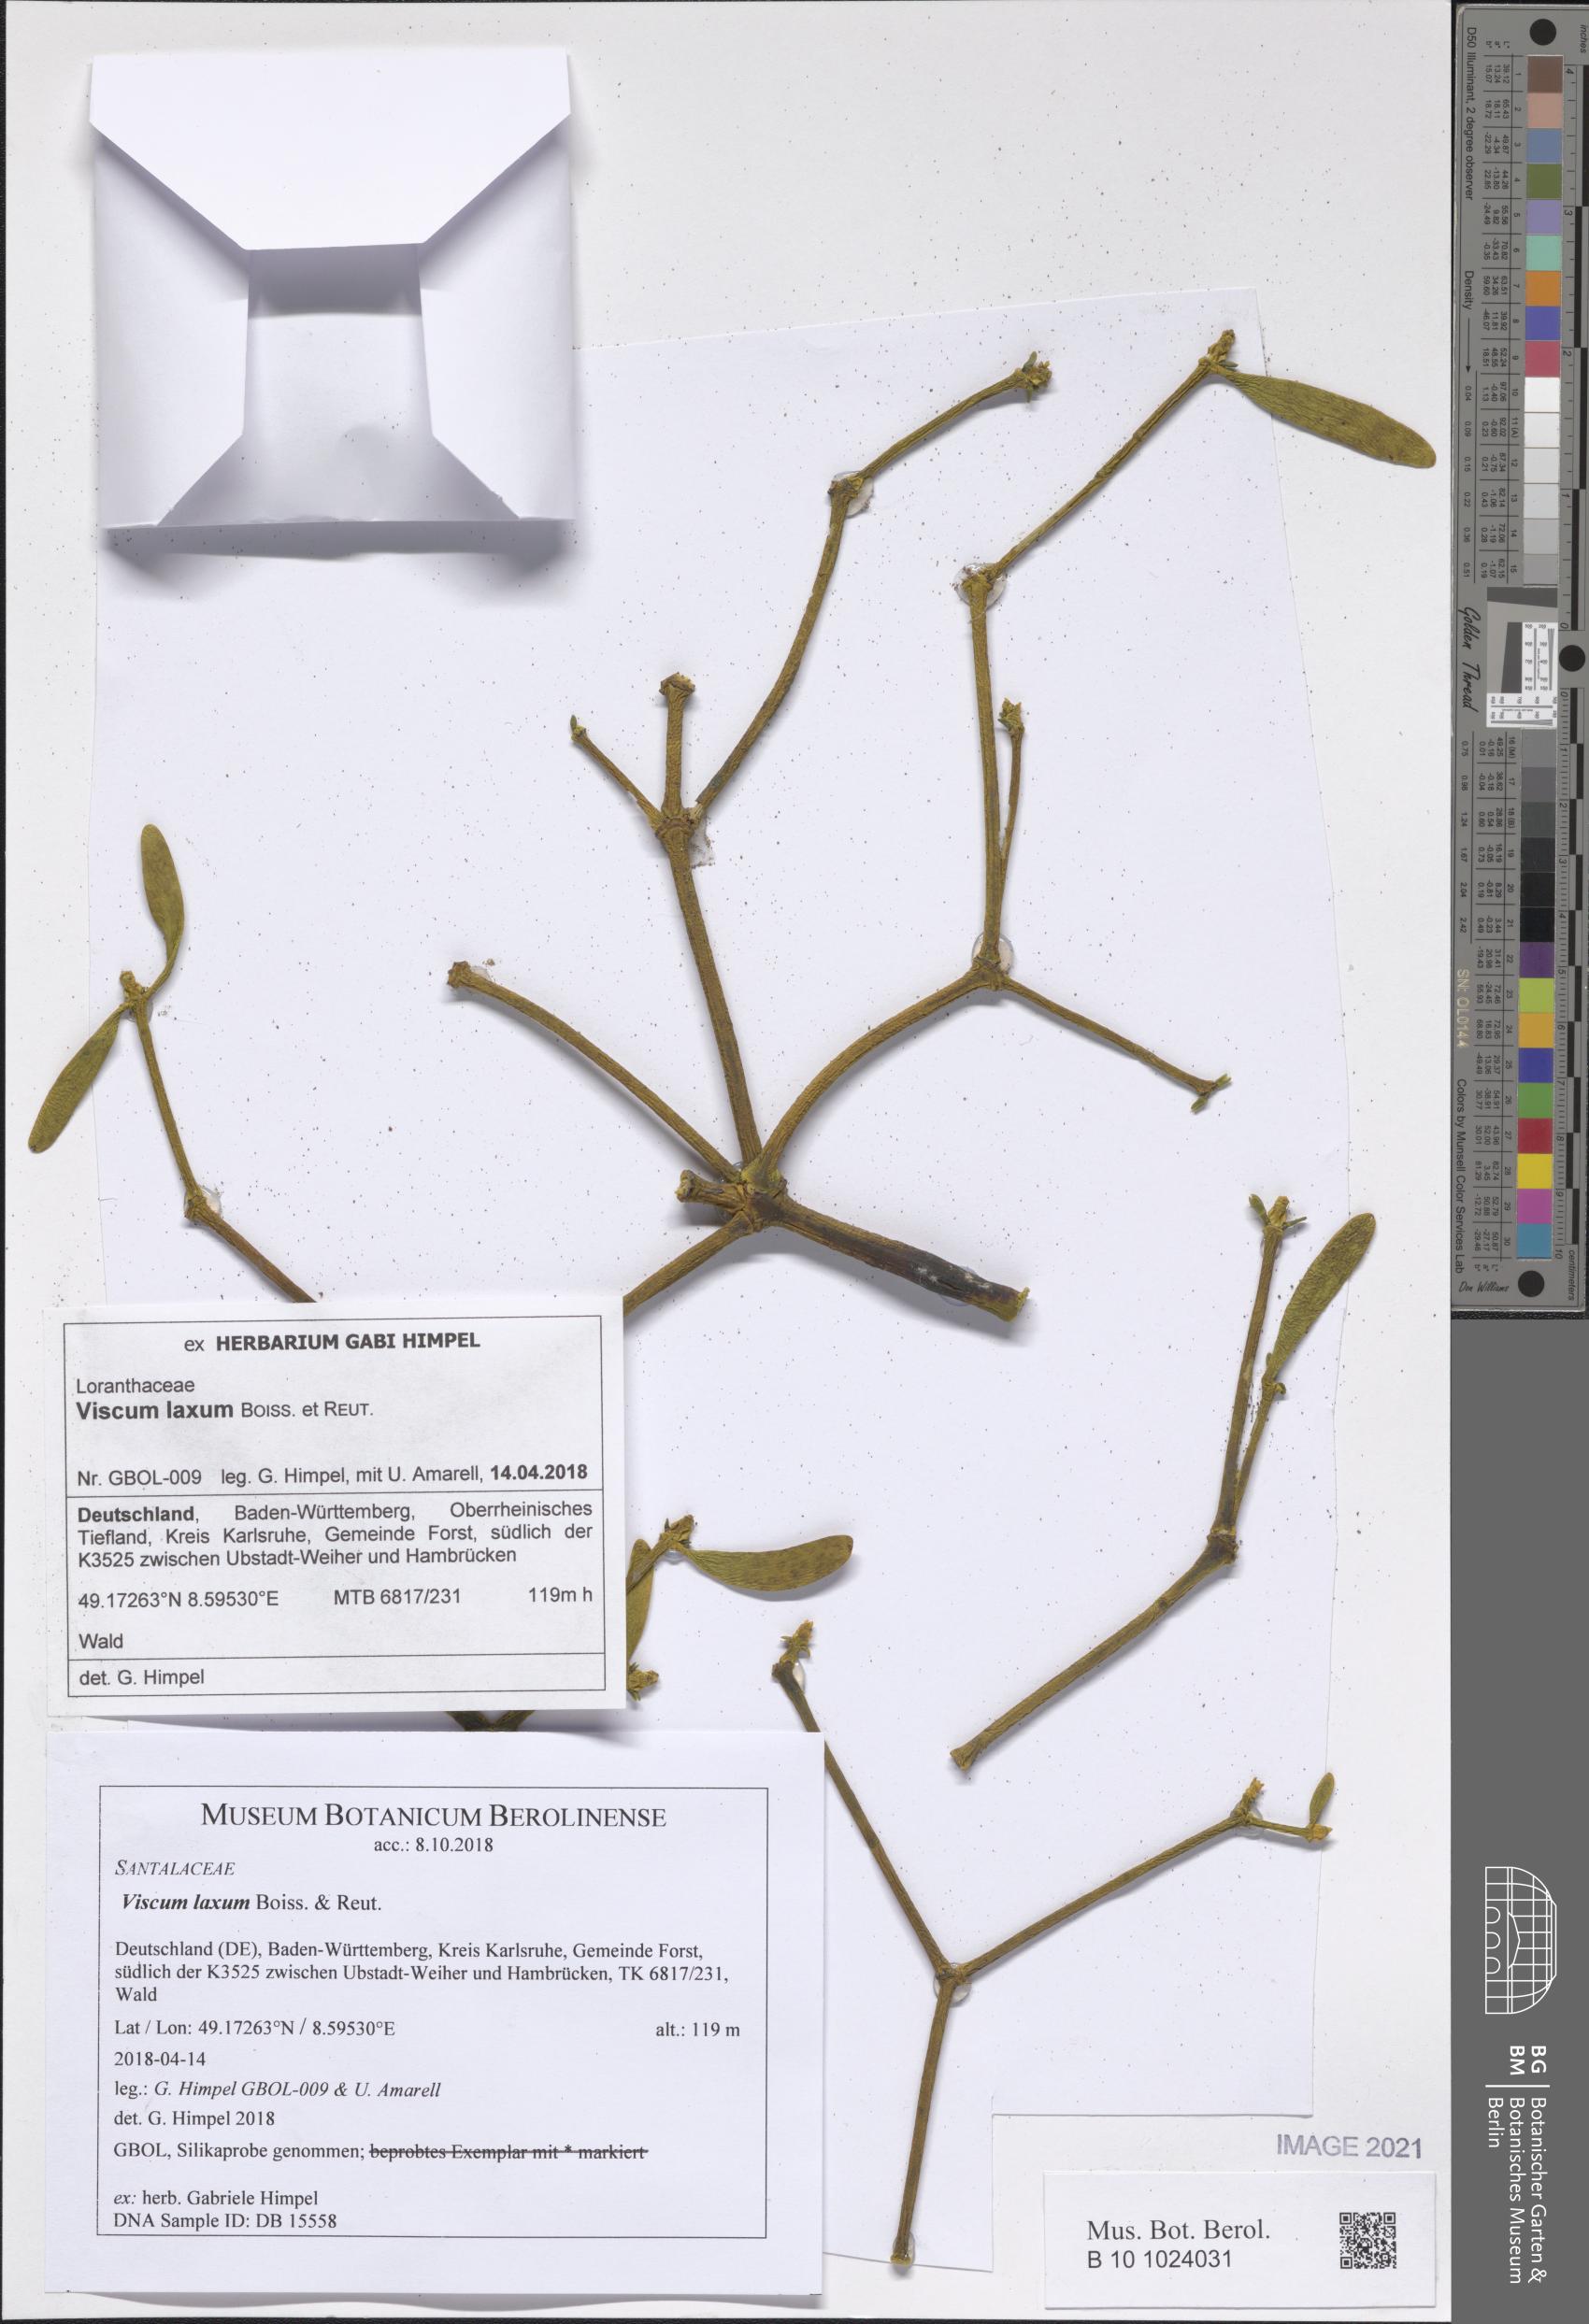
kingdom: Plantae
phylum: Tracheophyta
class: Magnoliopsida
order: Santalales
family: Viscaceae
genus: Viscum
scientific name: Viscum laxum
